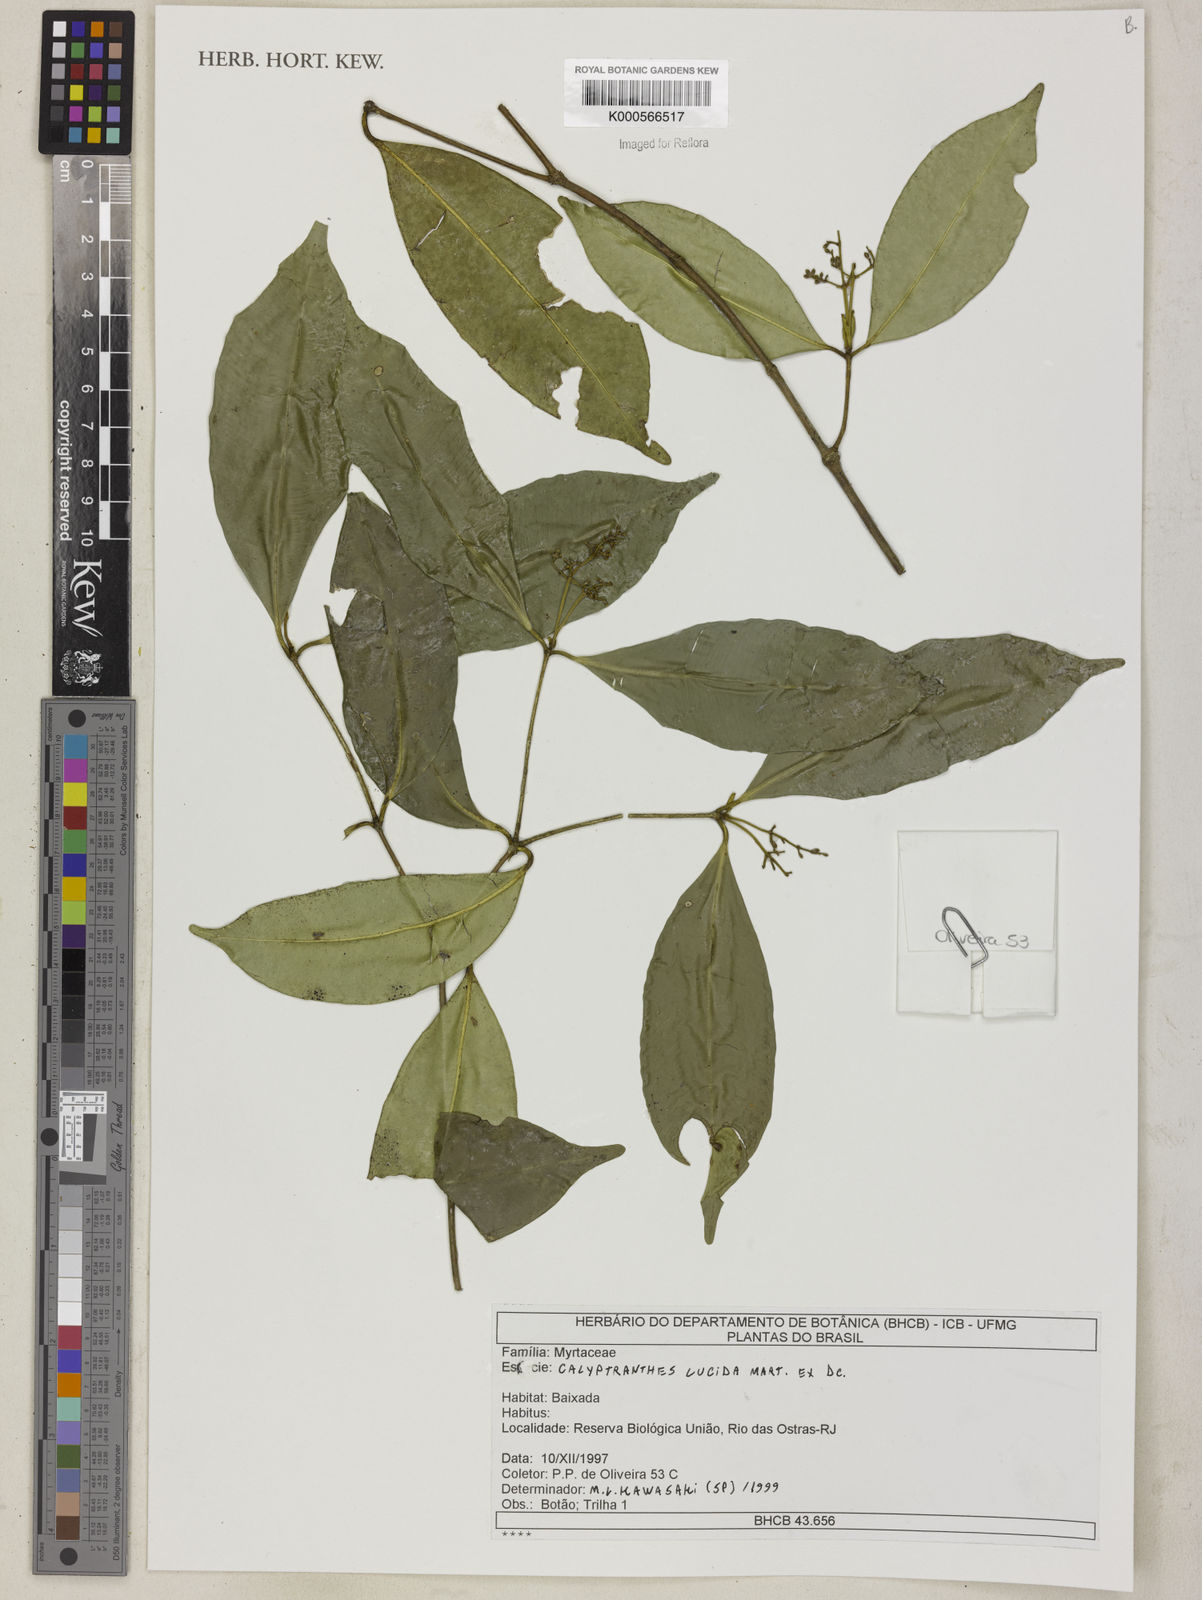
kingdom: Plantae
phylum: Tracheophyta
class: Magnoliopsida
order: Myrtales
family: Myrtaceae
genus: Myrcia
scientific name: Myrcia neolucida
